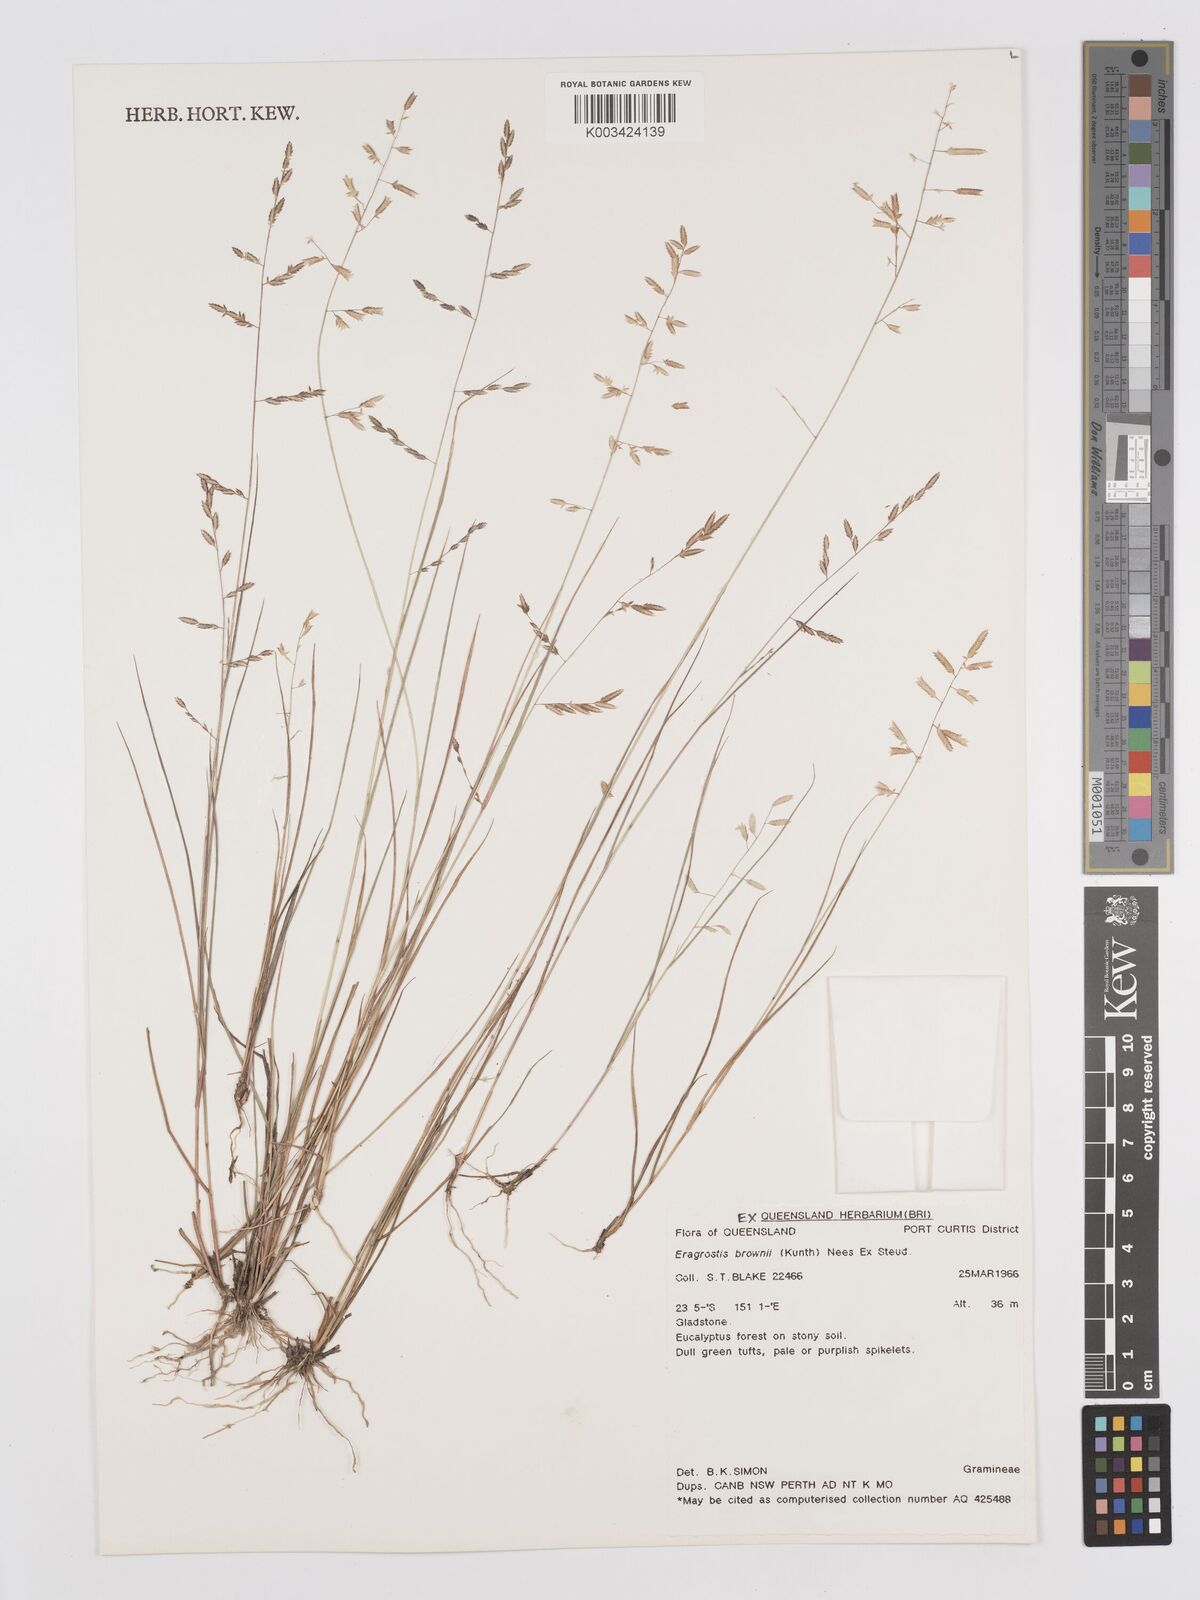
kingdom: Plantae
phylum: Tracheophyta
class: Liliopsida
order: Poales
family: Poaceae
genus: Eragrostis
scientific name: Eragrostis brownii
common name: Lovegrass
